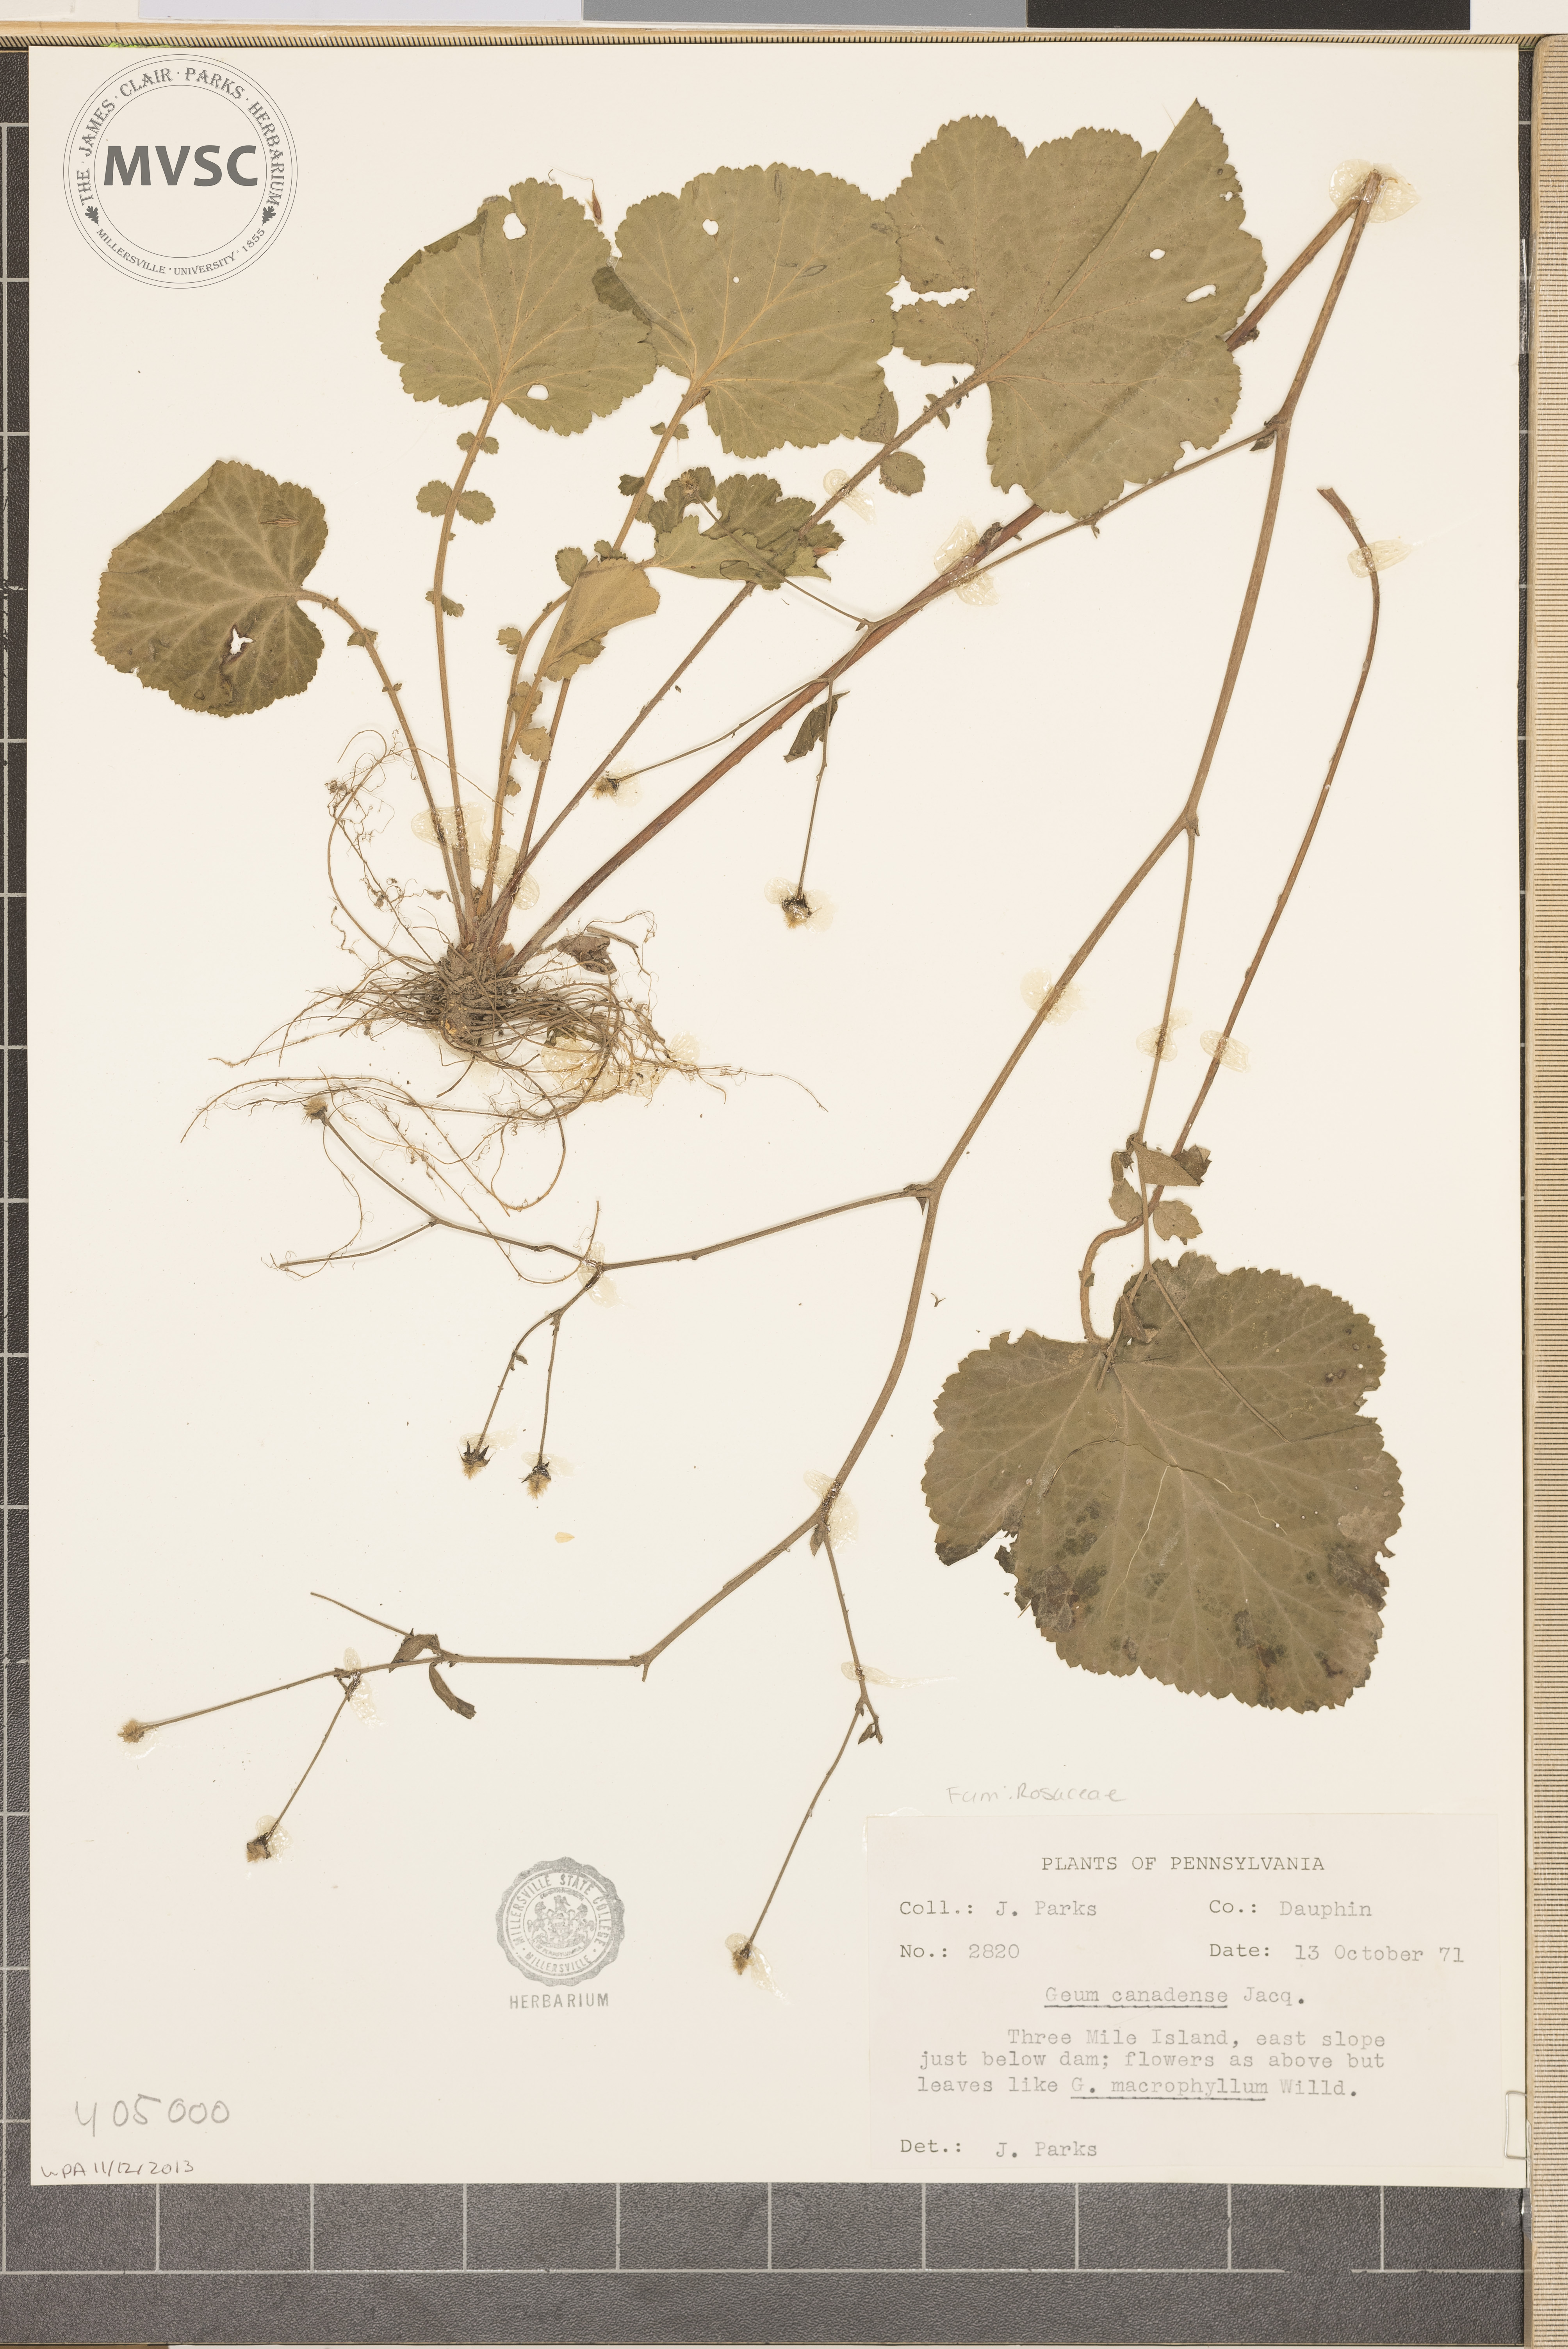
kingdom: Plantae
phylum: Tracheophyta
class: Magnoliopsida
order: Rosales
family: Rosaceae
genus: Geum
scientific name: Geum canadense
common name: White avens
